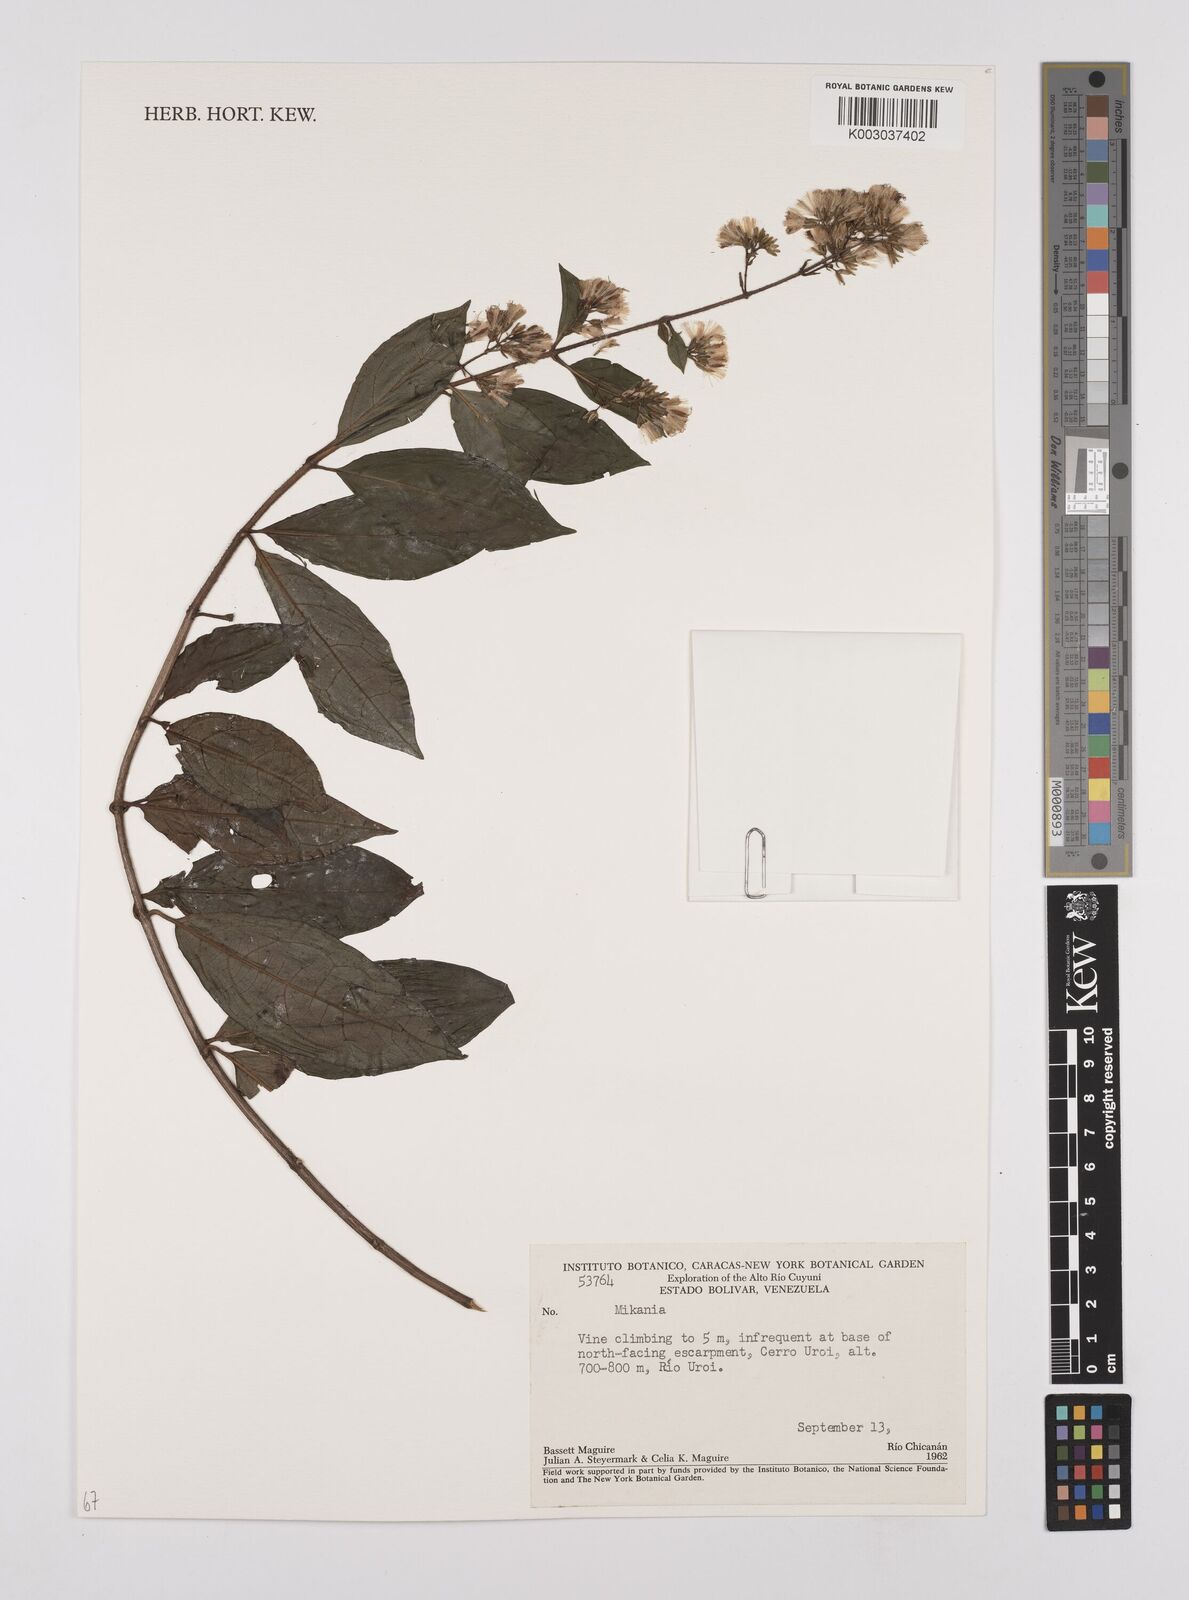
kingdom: Plantae
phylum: Tracheophyta
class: Magnoliopsida
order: Asterales
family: Asteraceae
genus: Mikania
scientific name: Mikania
